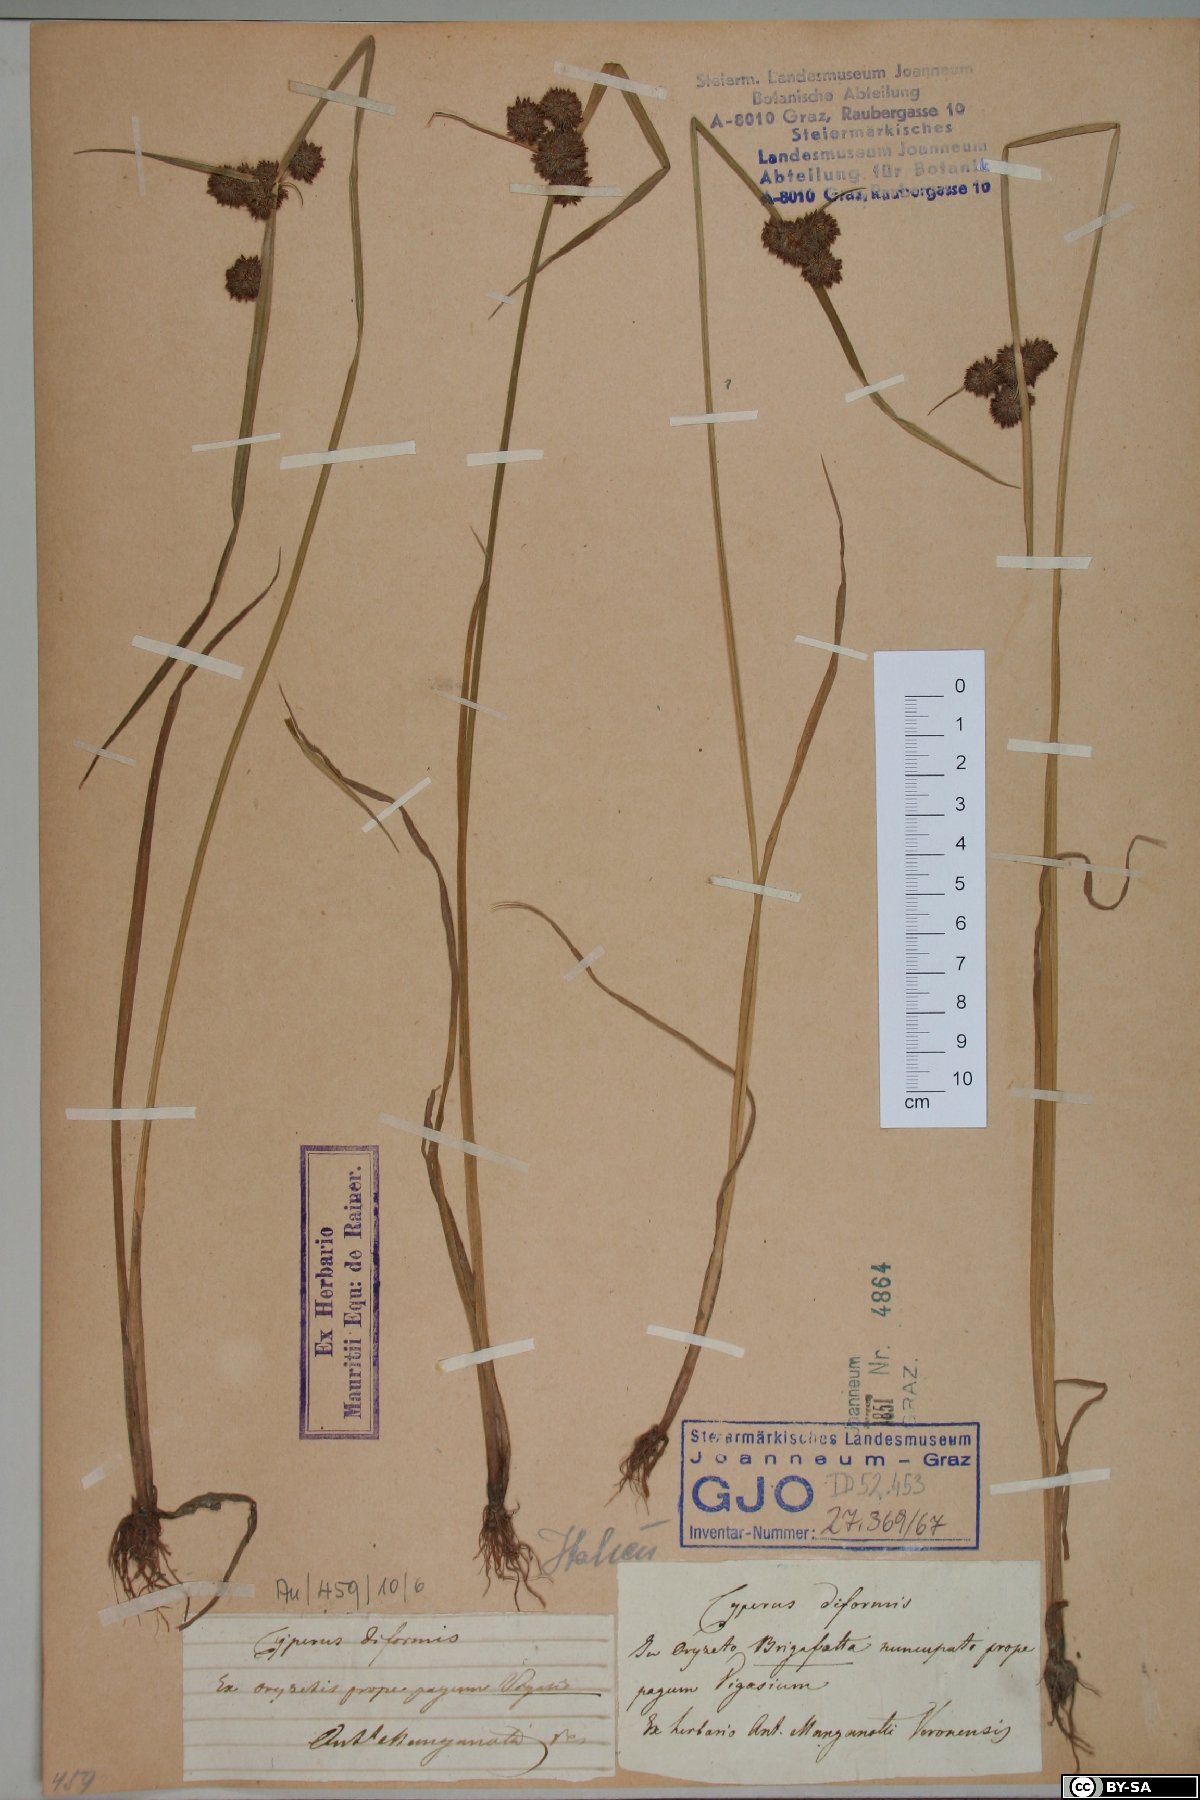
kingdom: Plantae
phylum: Tracheophyta
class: Liliopsida
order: Poales
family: Cyperaceae
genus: Cyperus
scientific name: Cyperus difformis
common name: Variable flatsedge
